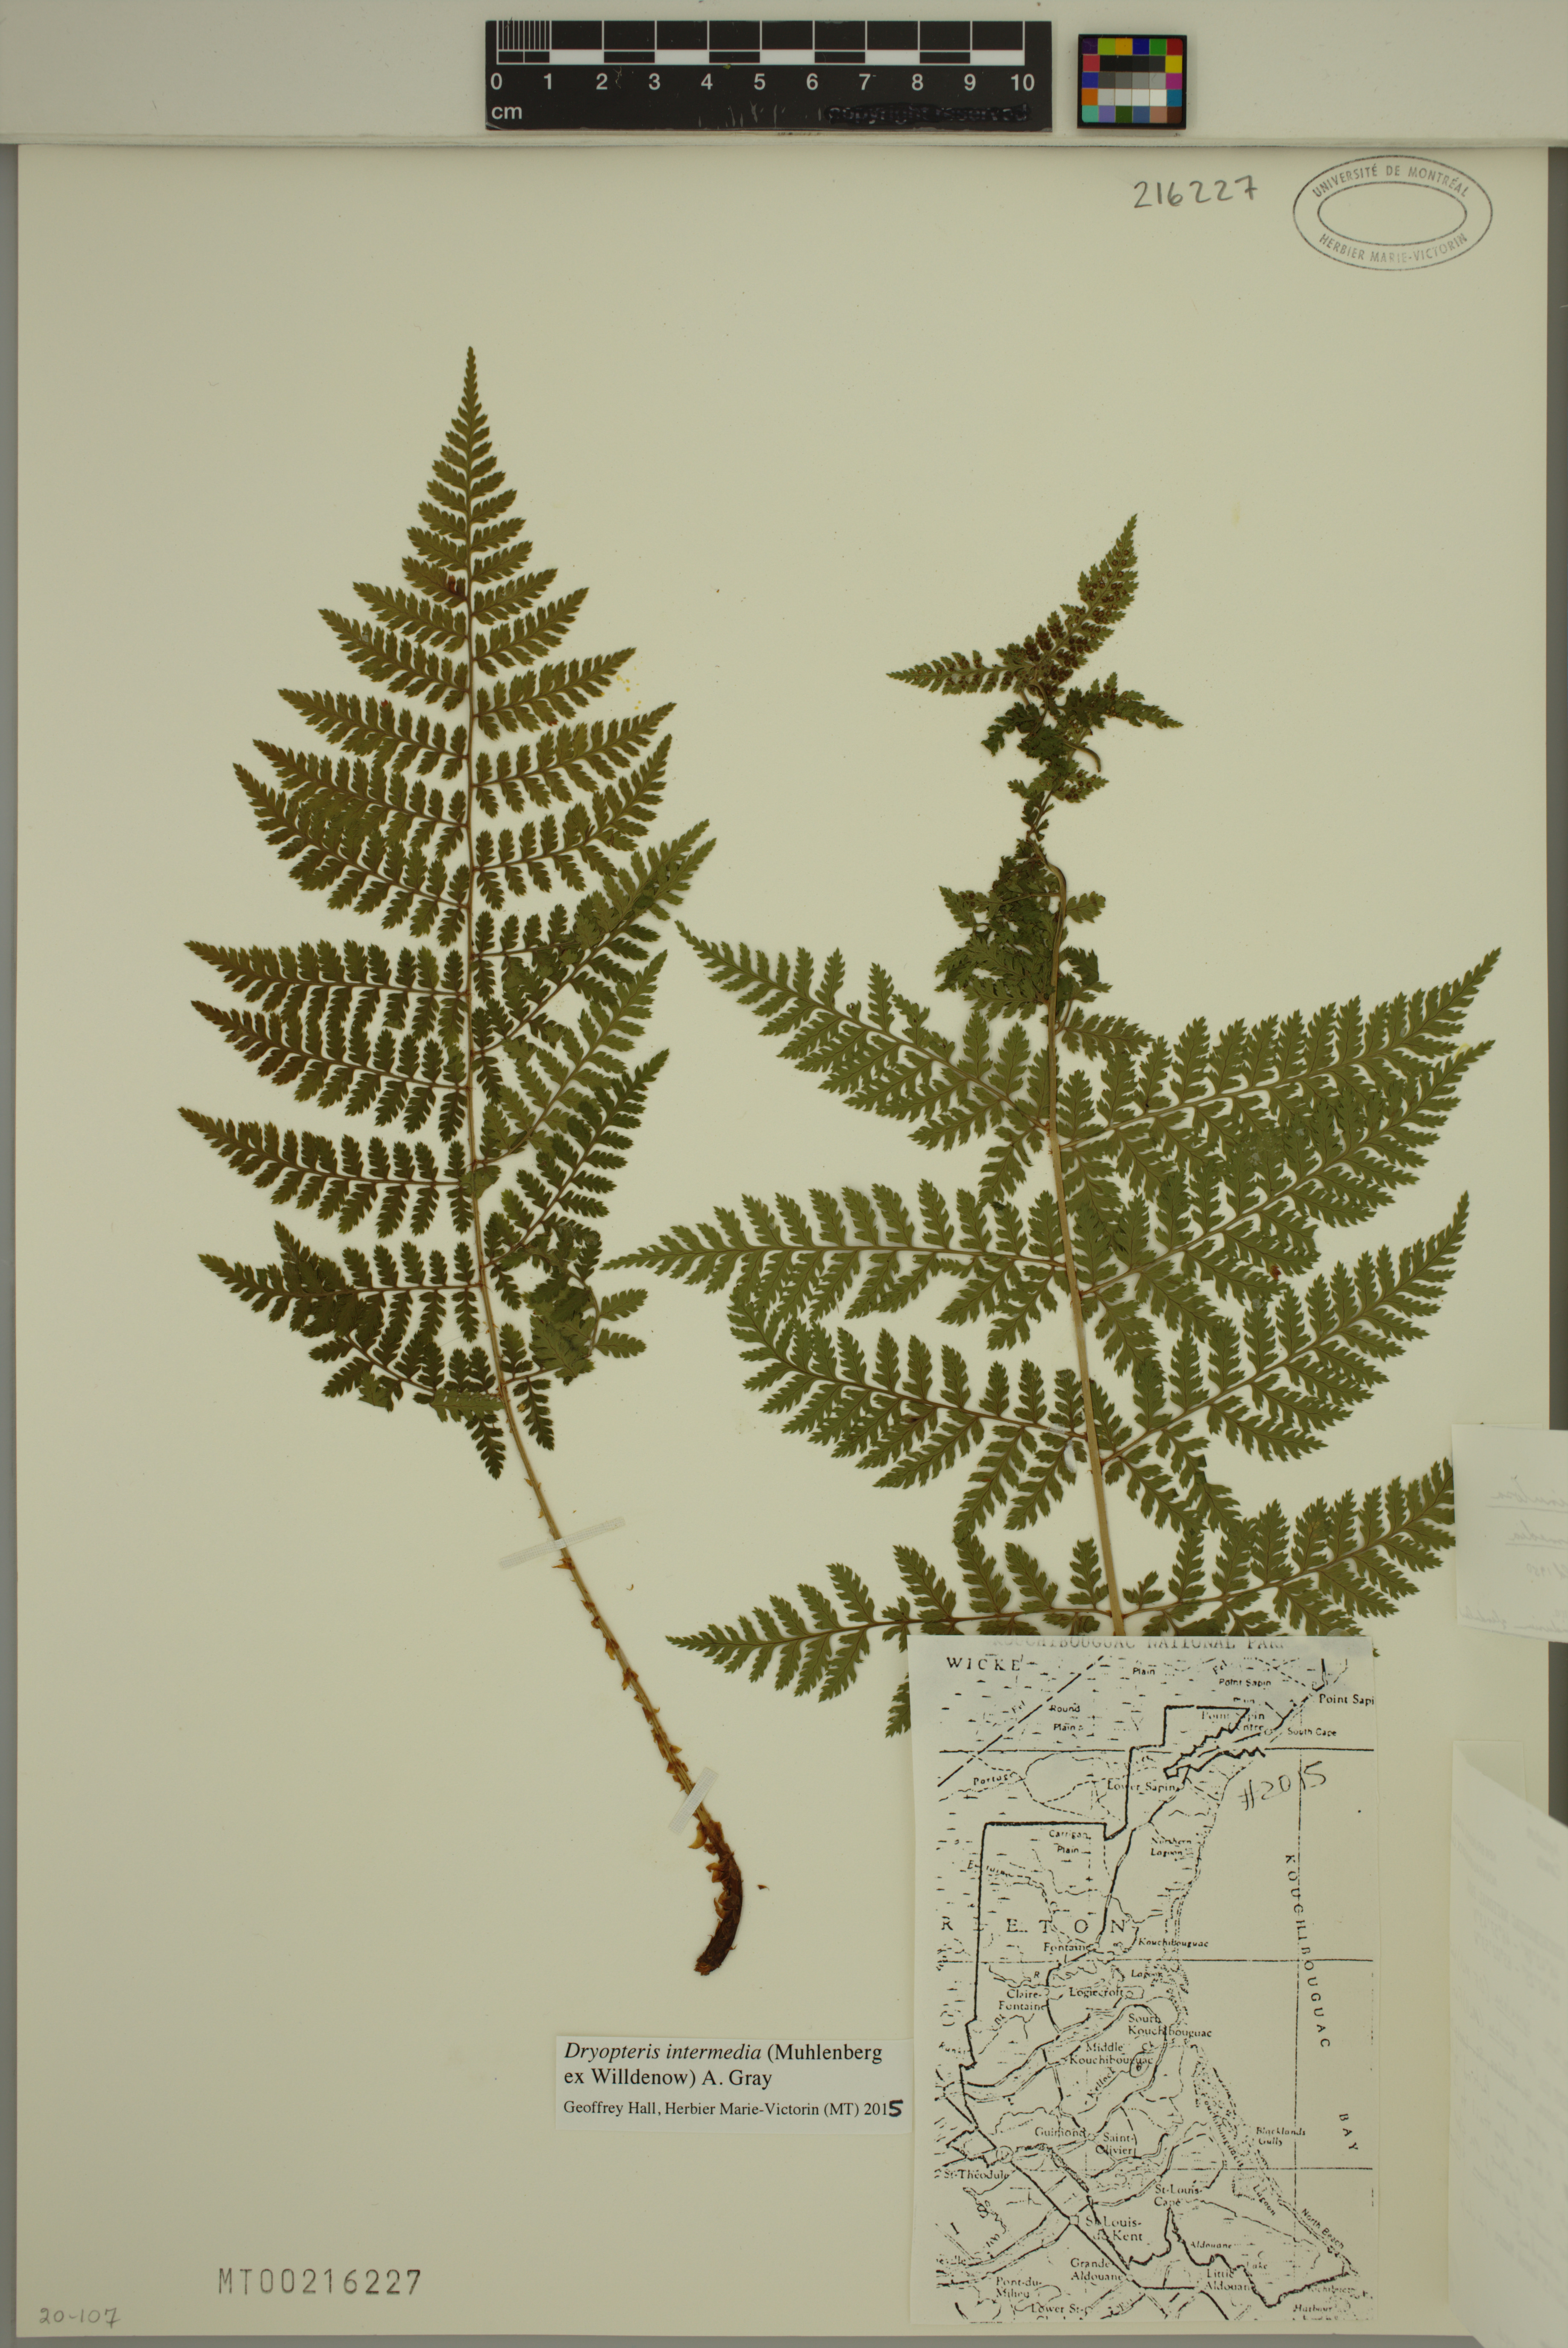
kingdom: Plantae
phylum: Tracheophyta
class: Polypodiopsida
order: Polypodiales
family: Dryopteridaceae
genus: Dryopteris
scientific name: Dryopteris intermedia
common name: Evergreen wood fern
